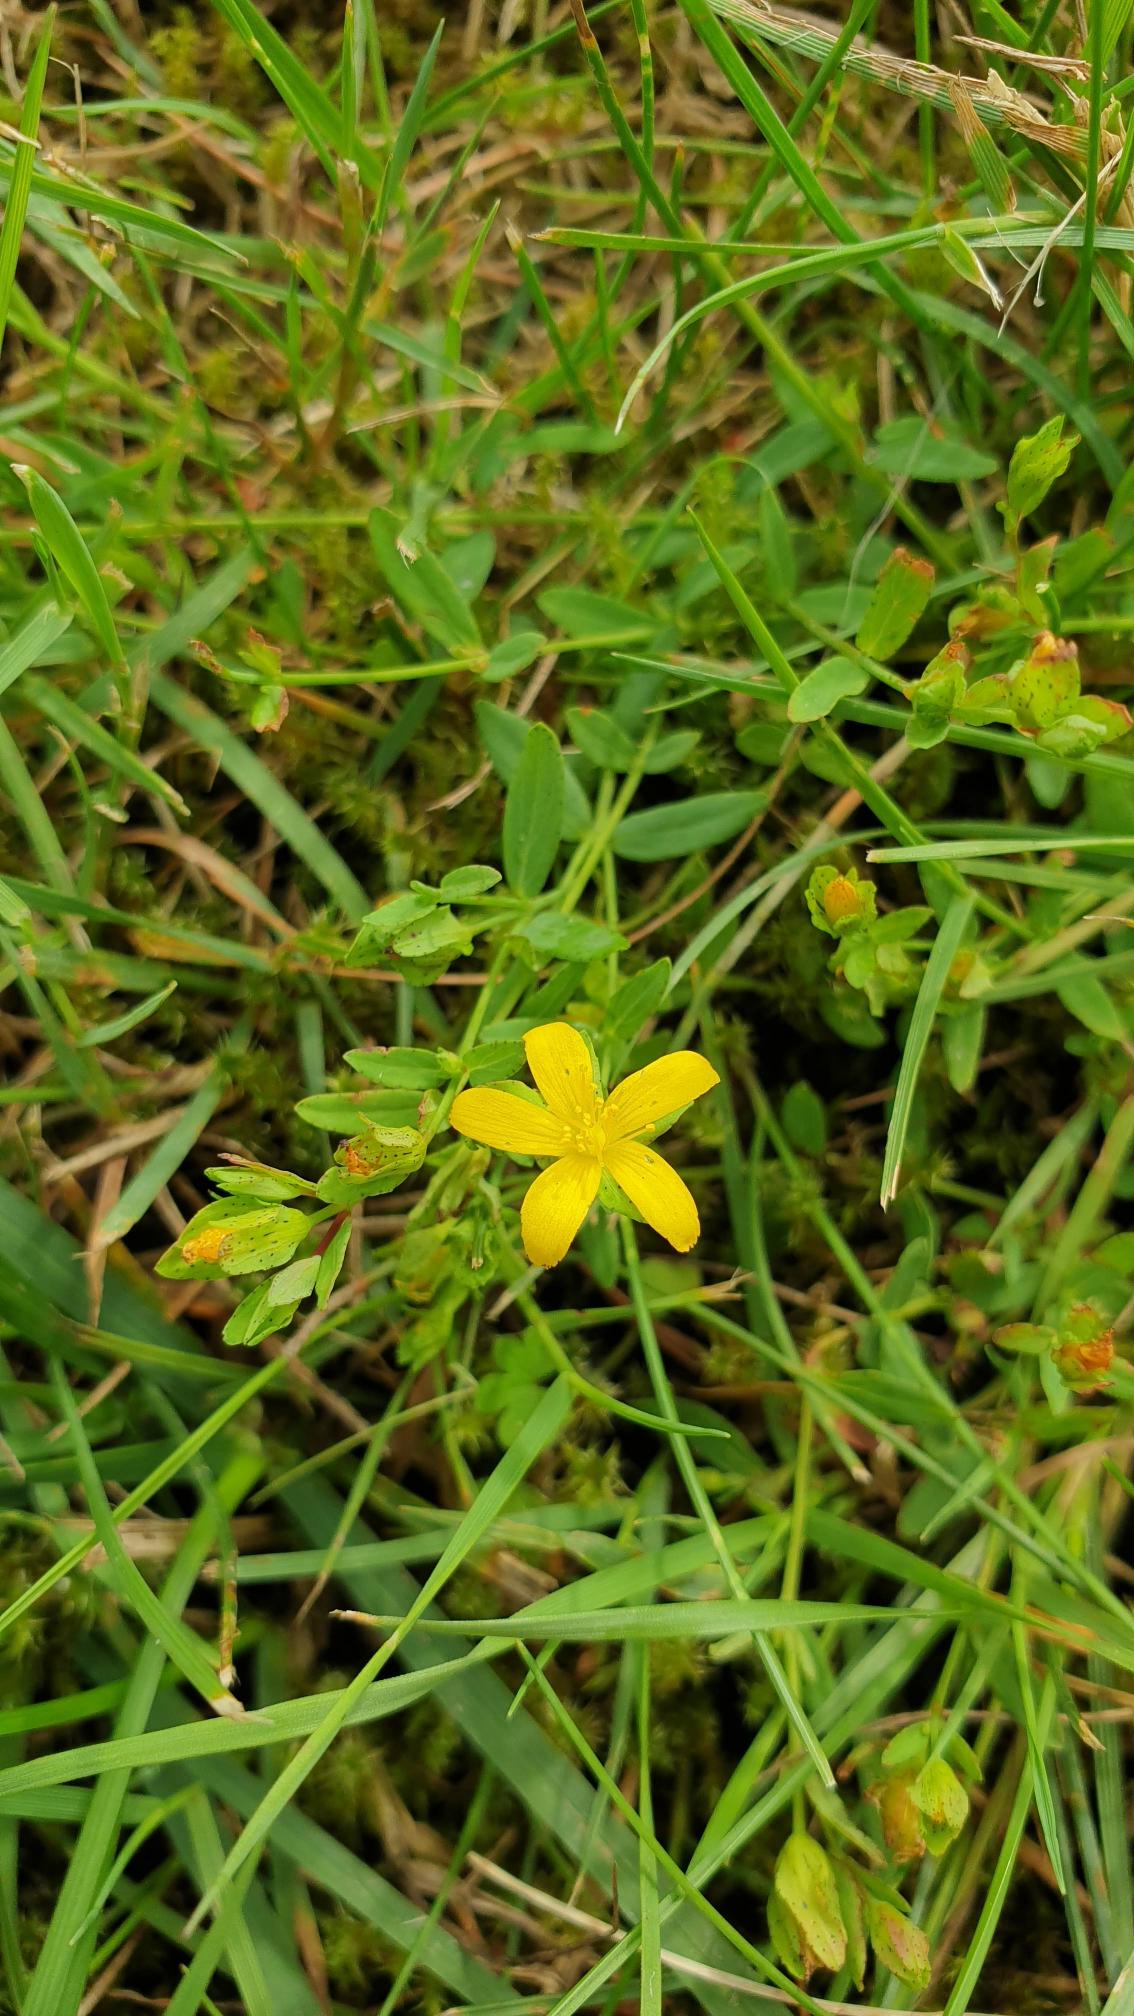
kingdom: Plantae
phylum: Tracheophyta
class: Magnoliopsida
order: Malpighiales
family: Hypericaceae
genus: Hypericum
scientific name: Hypericum humifusum
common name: Dværg-perikon
